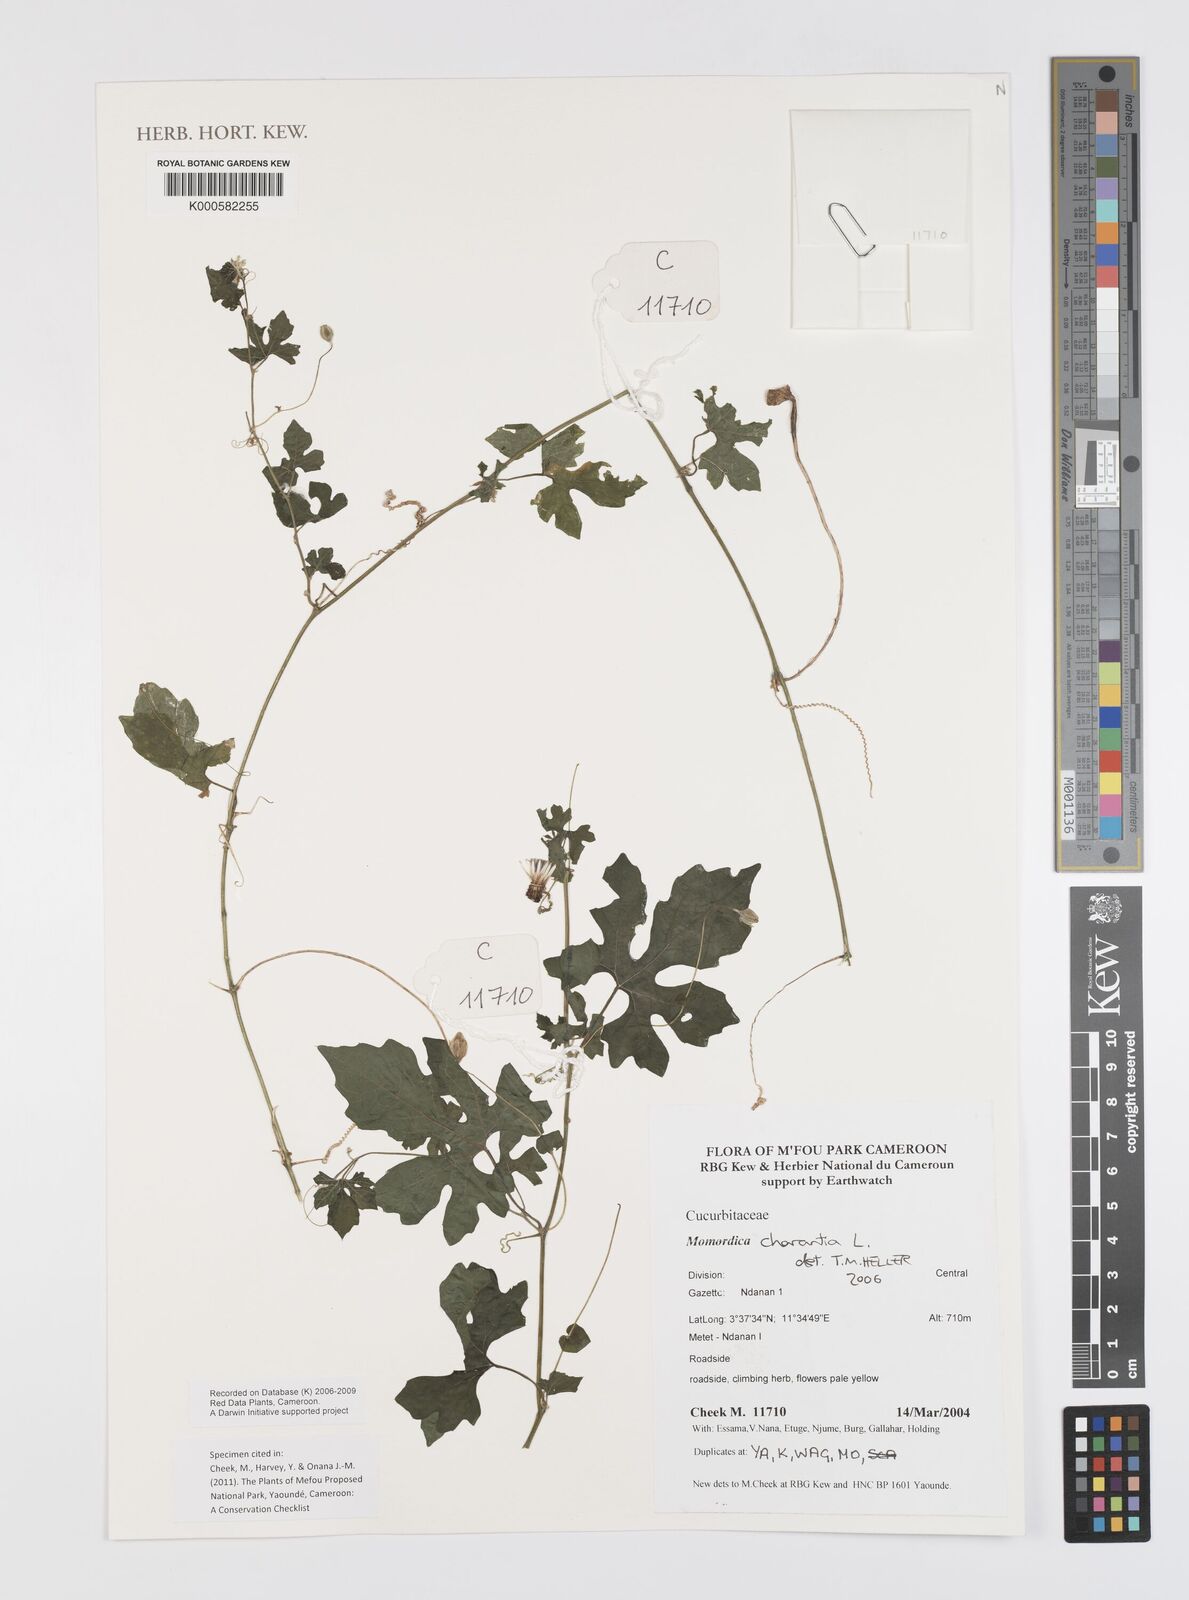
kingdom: Plantae
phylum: Tracheophyta
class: Magnoliopsida
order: Cucurbitales
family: Cucurbitaceae
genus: Momordica
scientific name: Momordica charantia
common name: Balsampear
